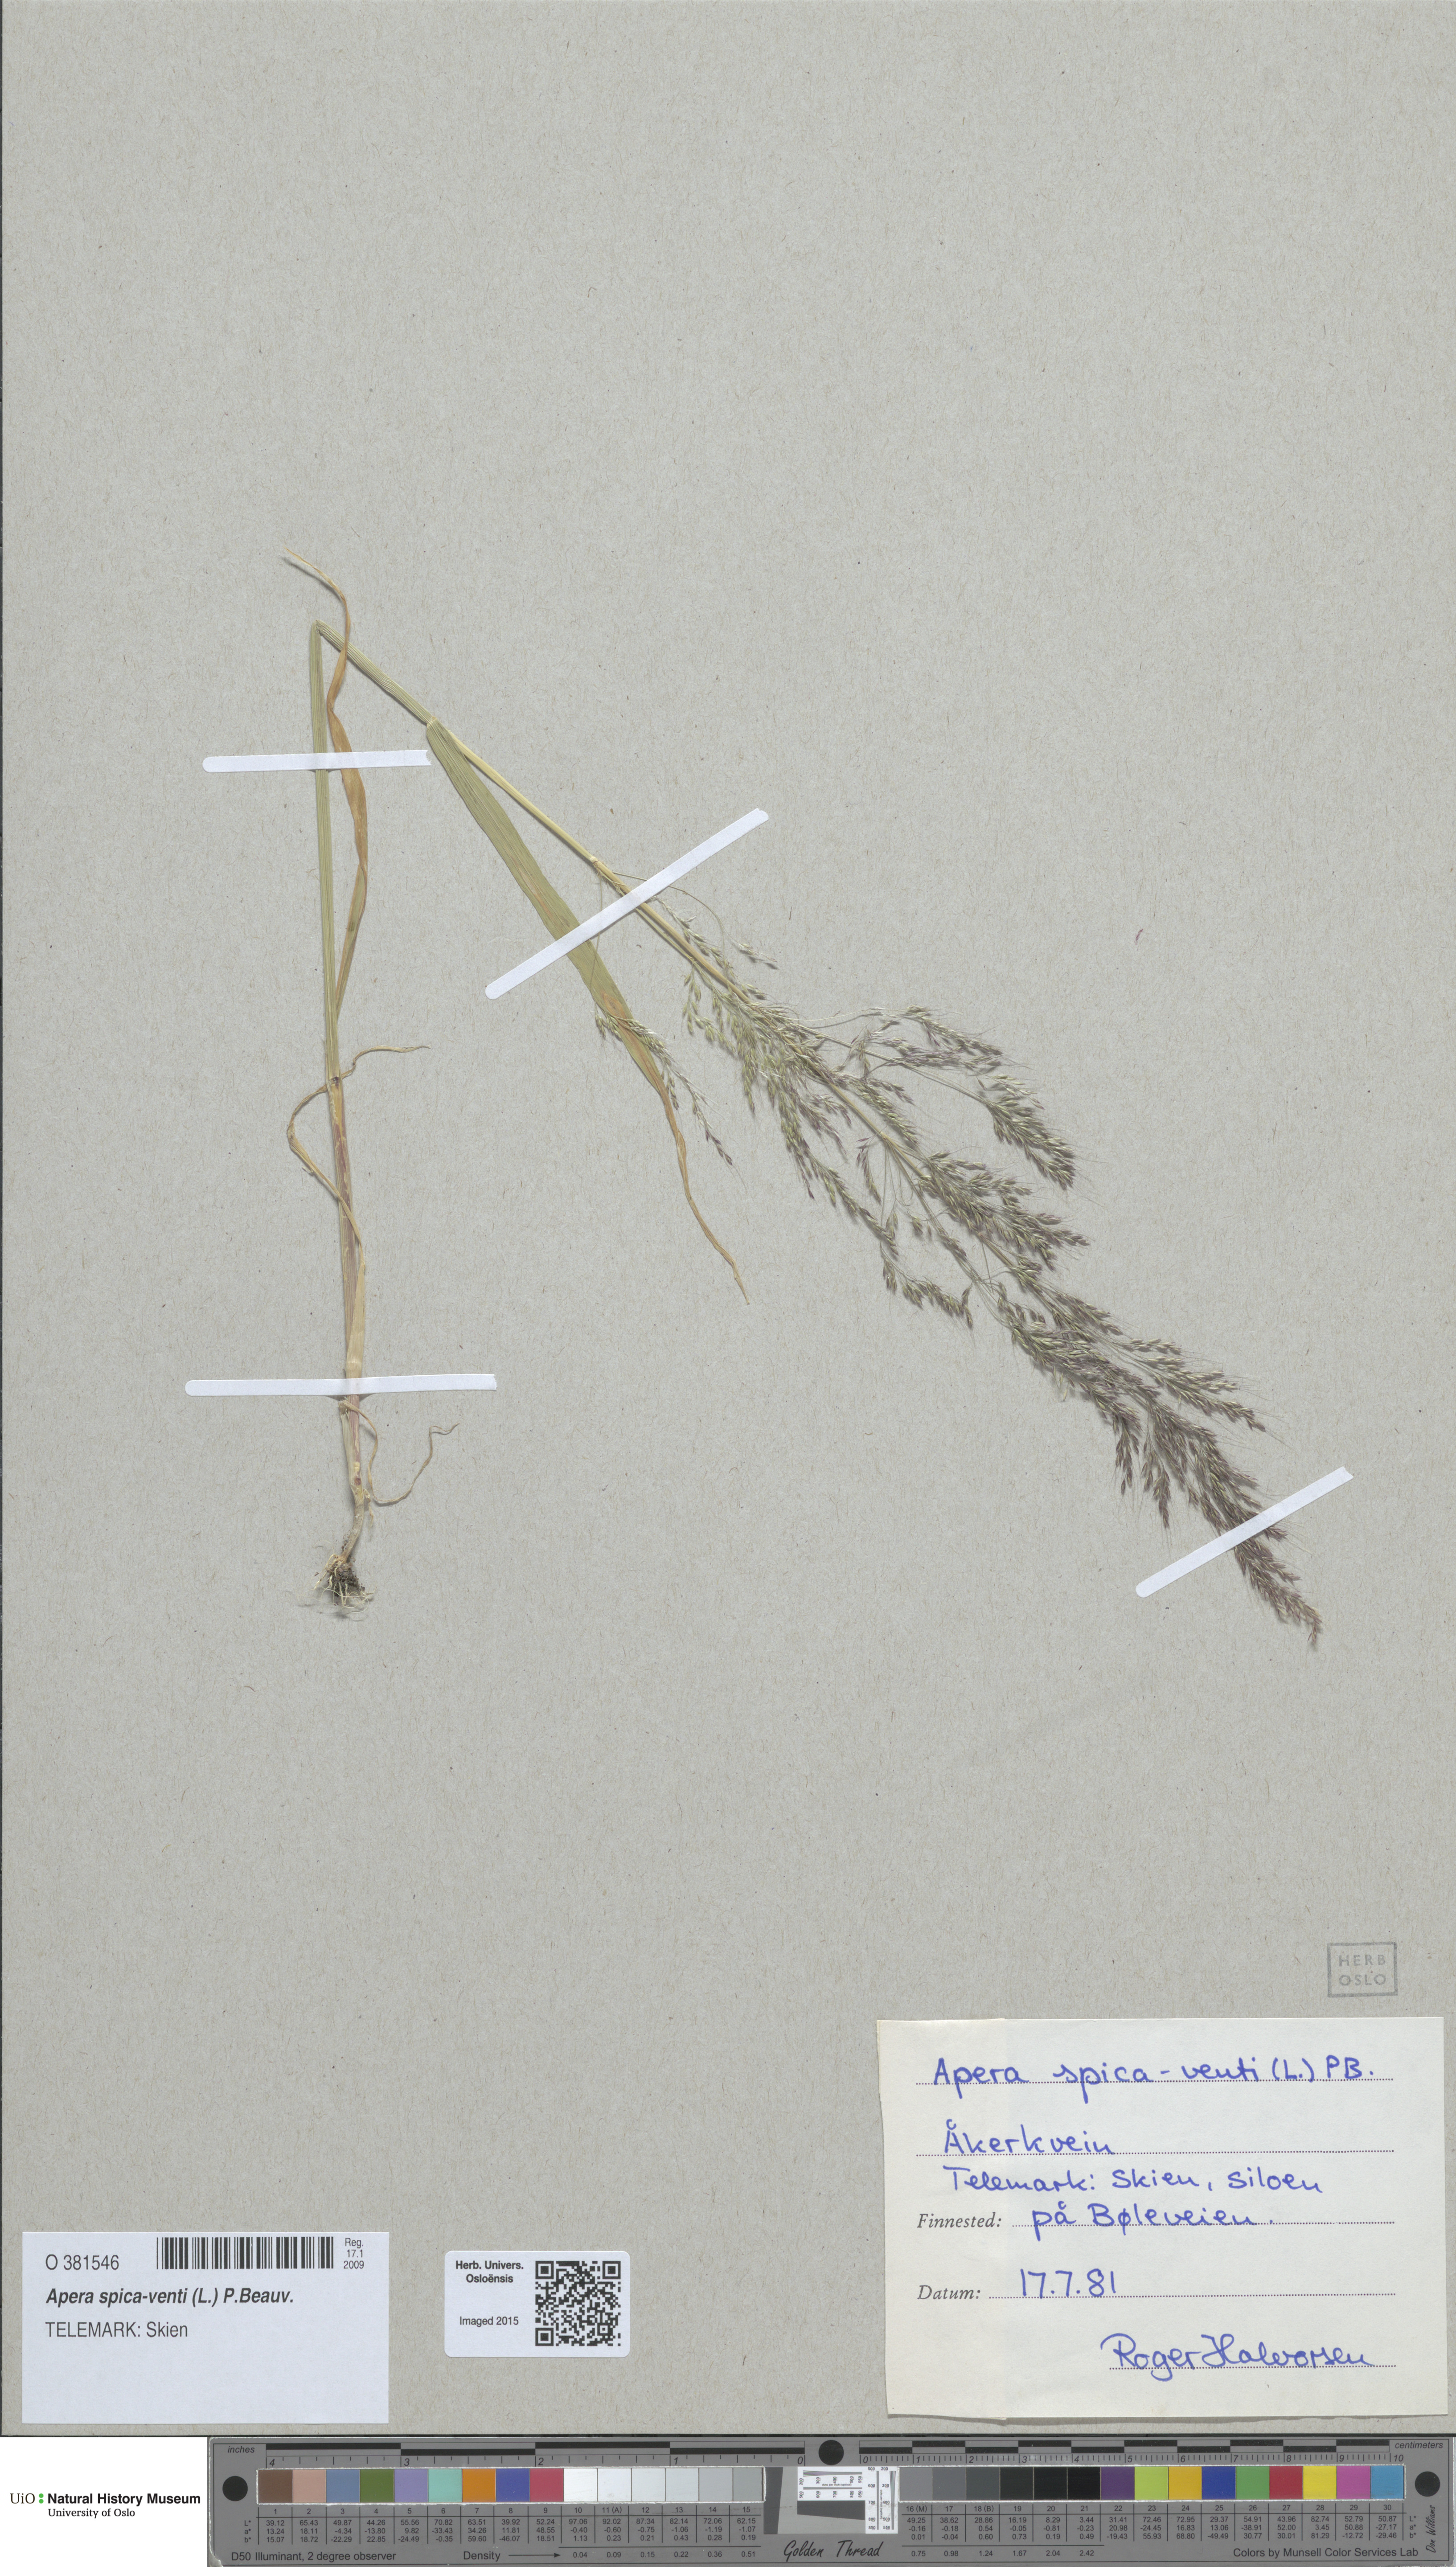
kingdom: Plantae
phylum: Tracheophyta
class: Liliopsida
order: Poales
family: Poaceae
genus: Apera
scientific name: Apera spica-venti
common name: Loose silky-bent
